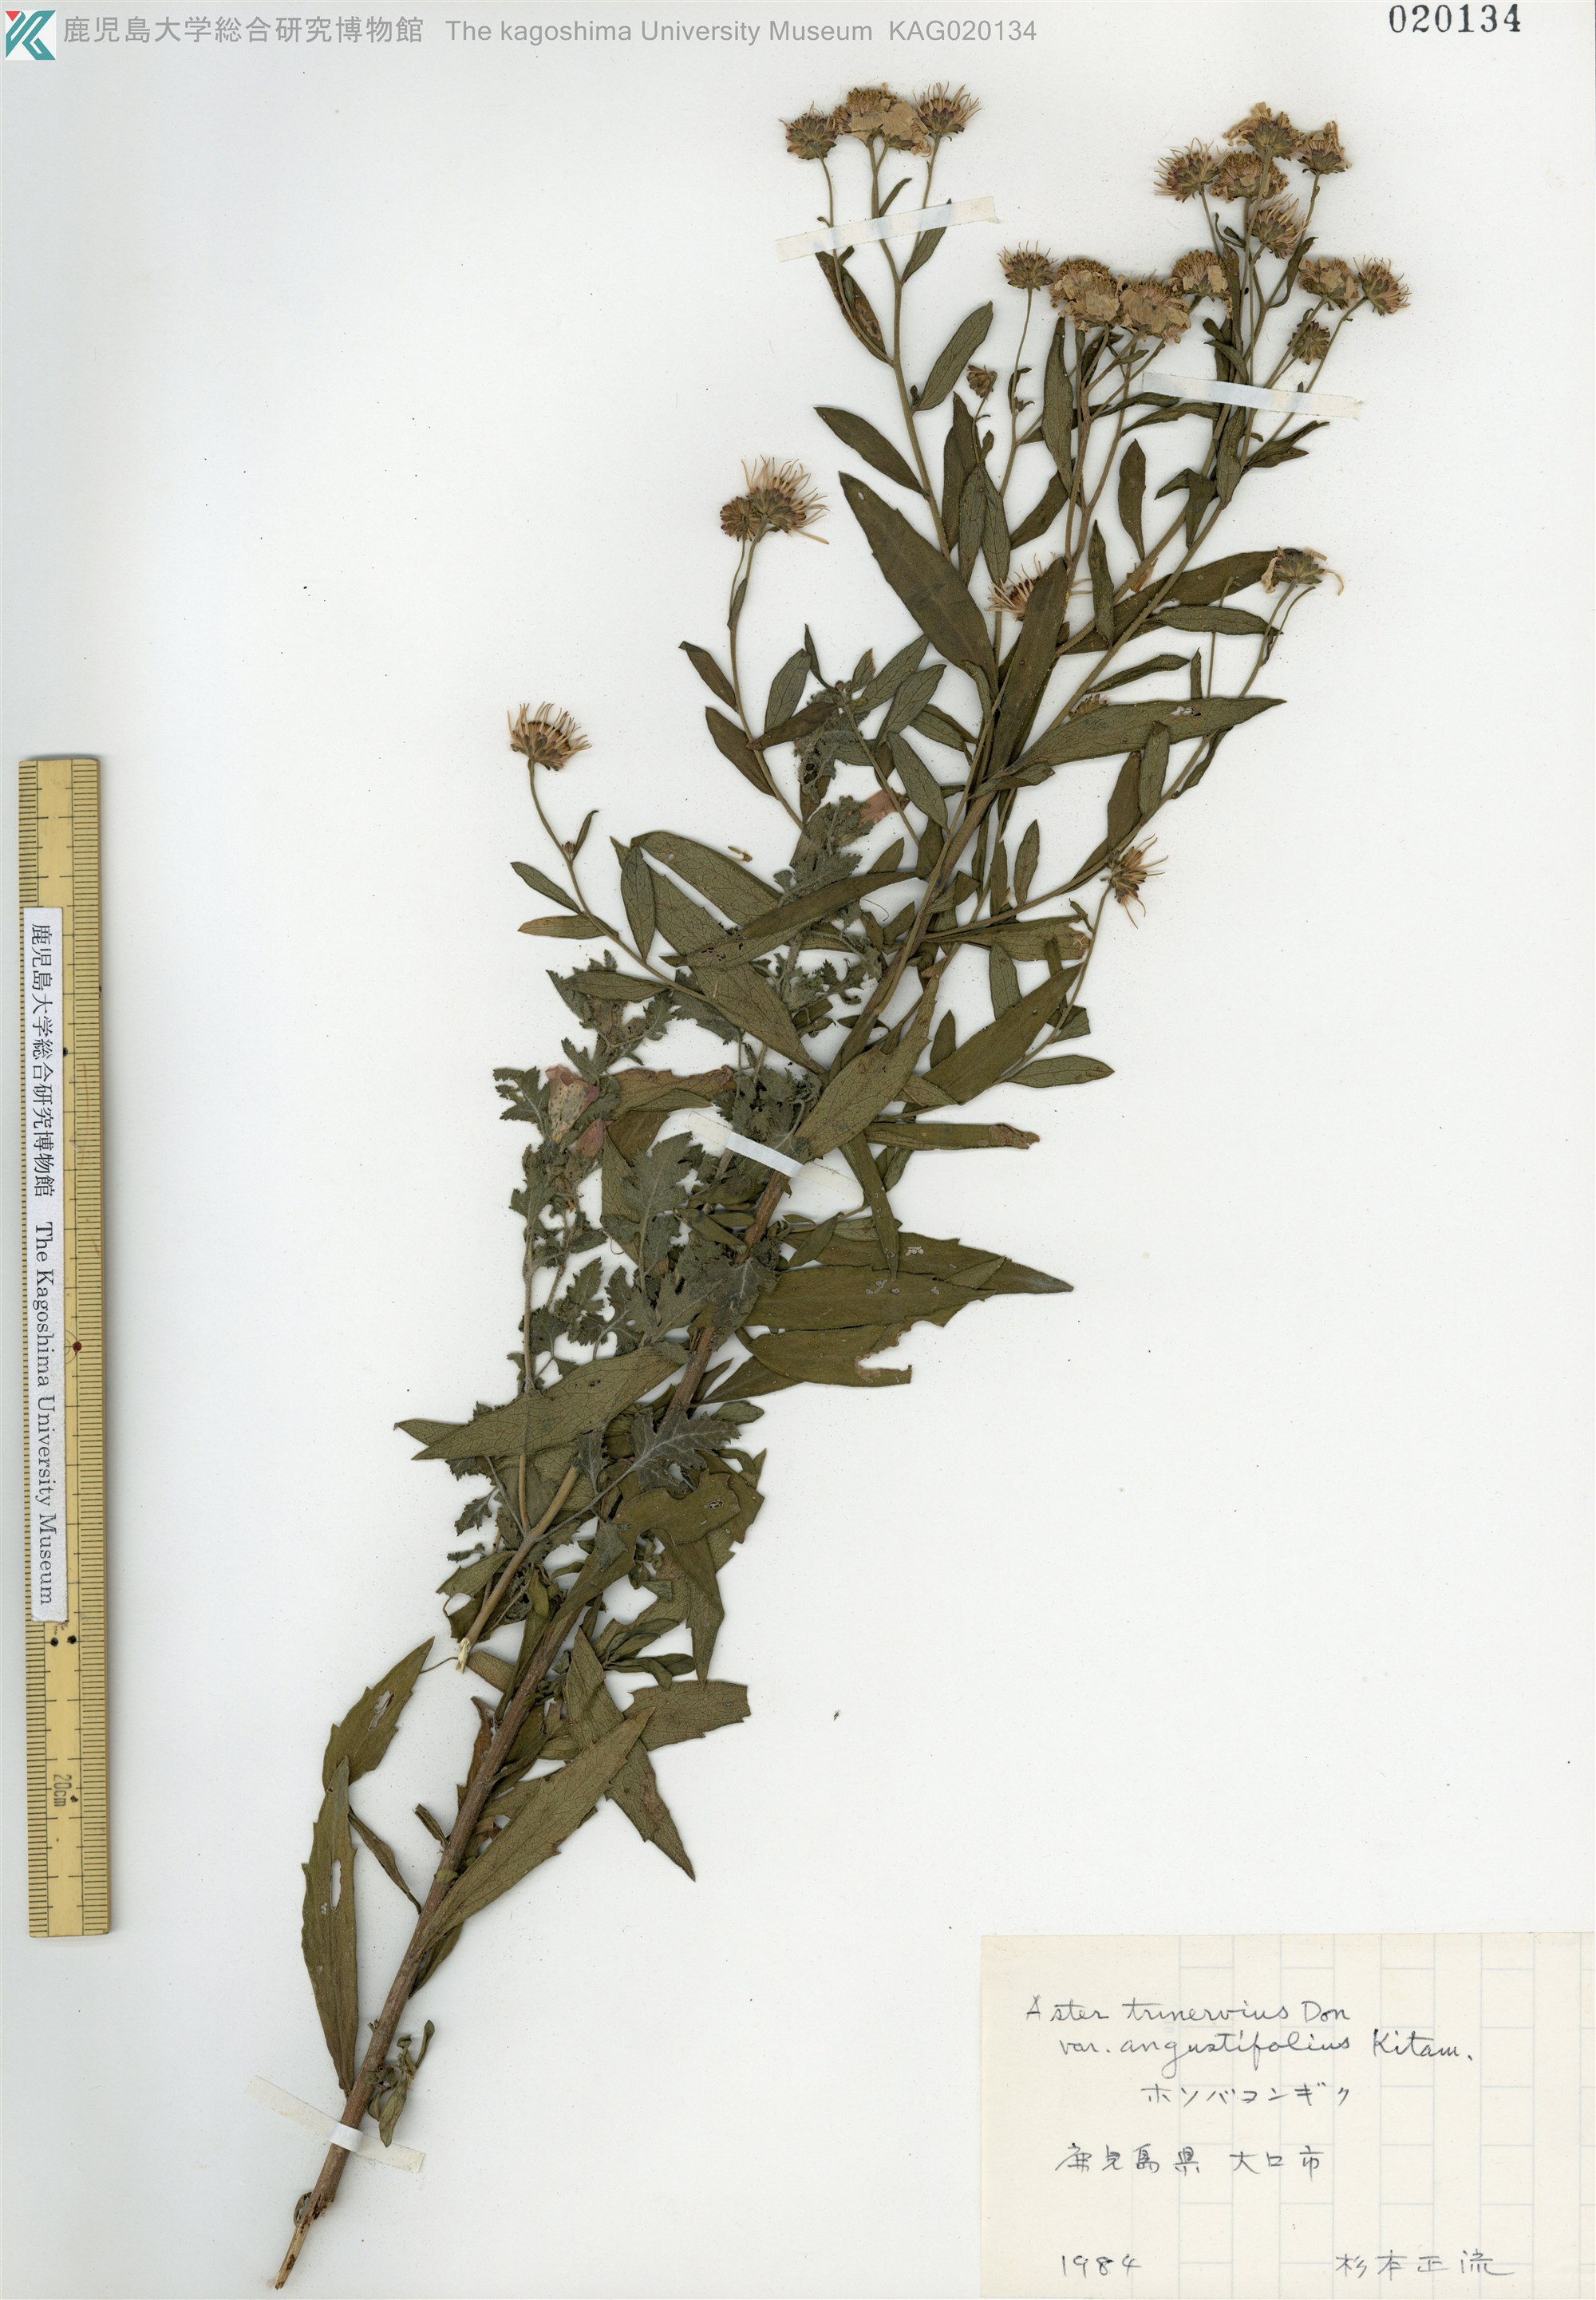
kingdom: Plantae
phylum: Tracheophyta
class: Magnoliopsida
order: Asterales
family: Asteraceae
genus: Aster
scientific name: Aster microcephalus
